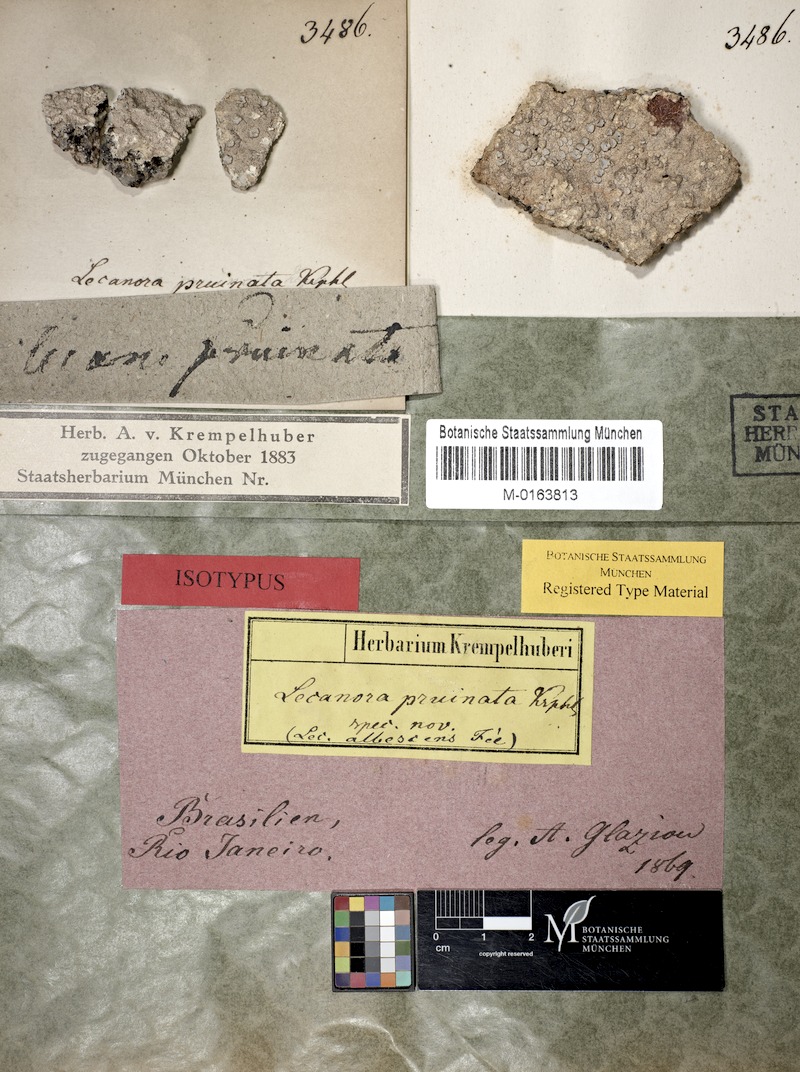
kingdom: Fungi
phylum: Ascomycota
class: Lecanoromycetes
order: Lecanorales
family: Lecanoraceae
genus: Lecanora
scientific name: Lecanora
